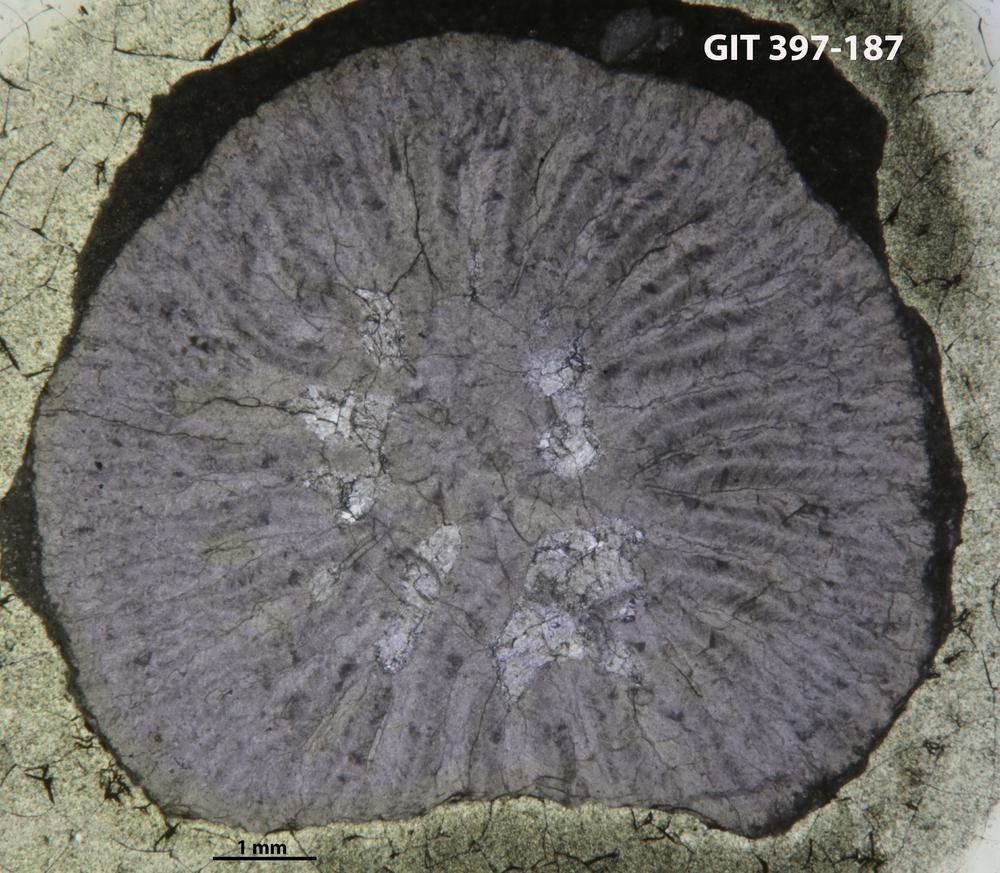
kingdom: Animalia
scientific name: Animalia
